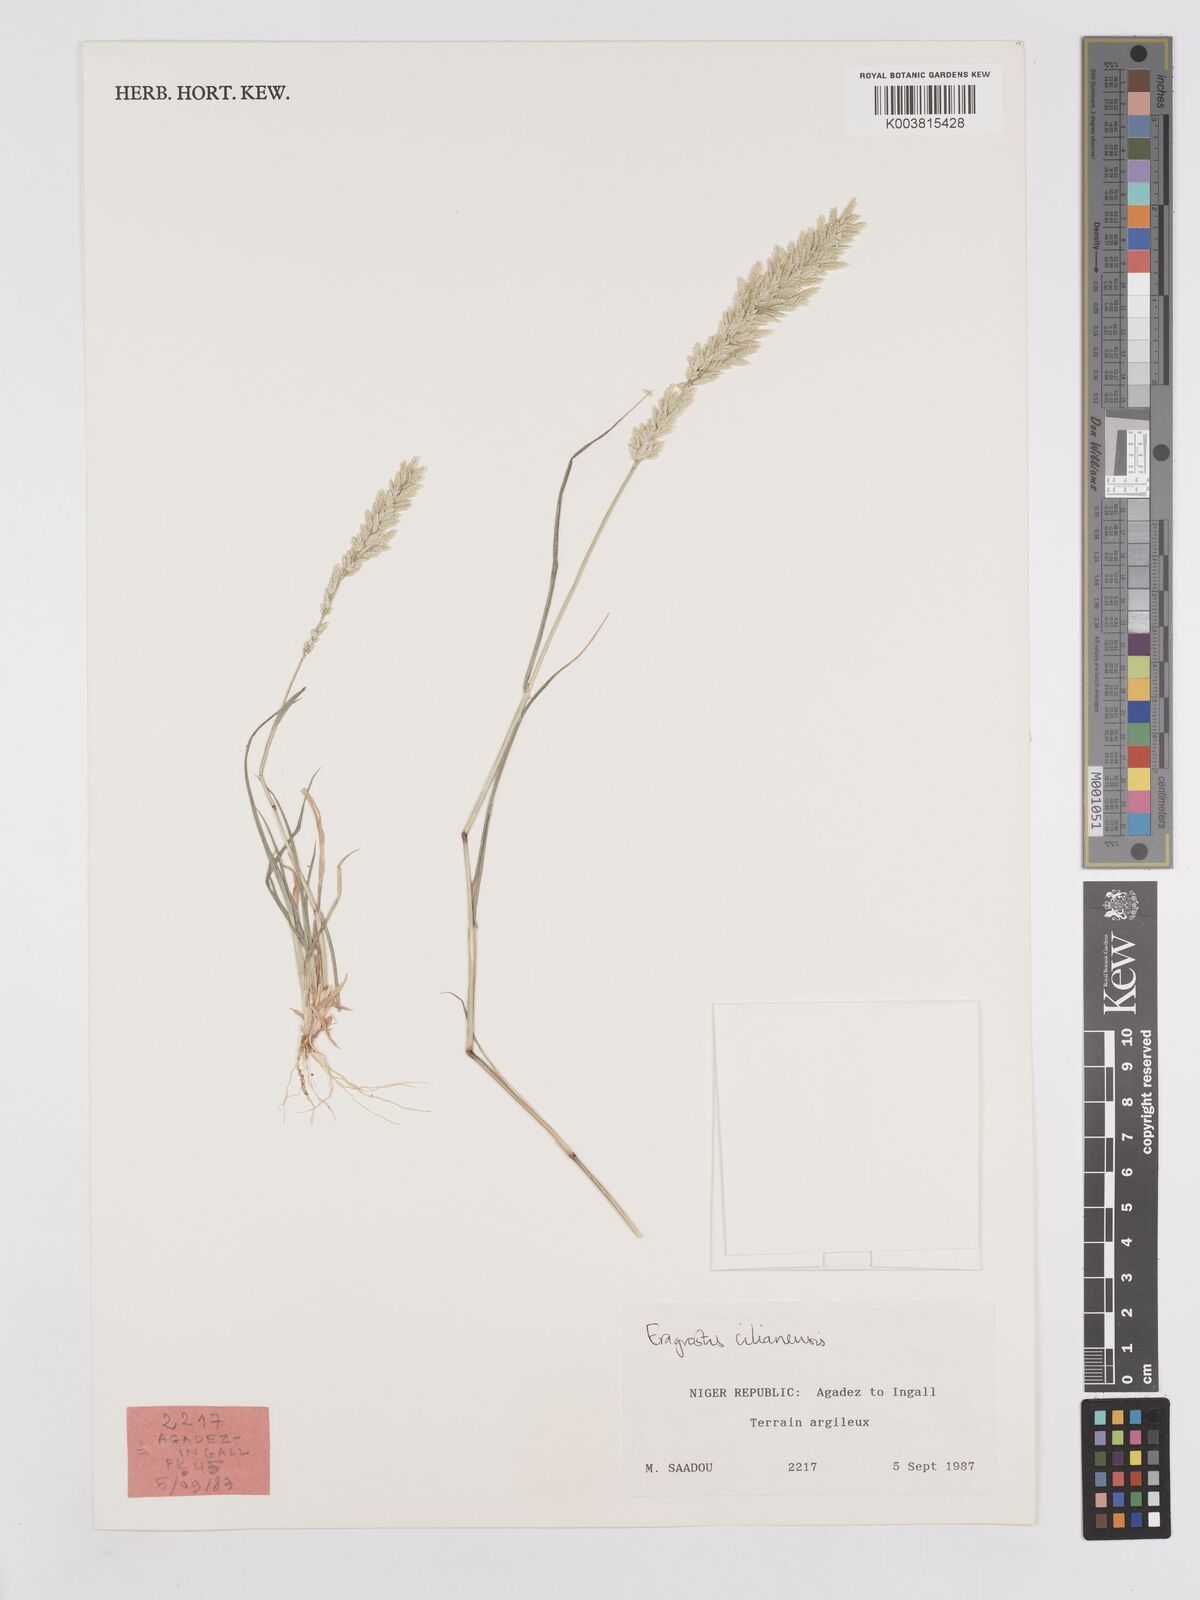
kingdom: Plantae
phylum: Tracheophyta
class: Liliopsida
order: Poales
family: Poaceae
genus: Eragrostis
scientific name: Eragrostis cilianensis
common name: Stinkgrass
